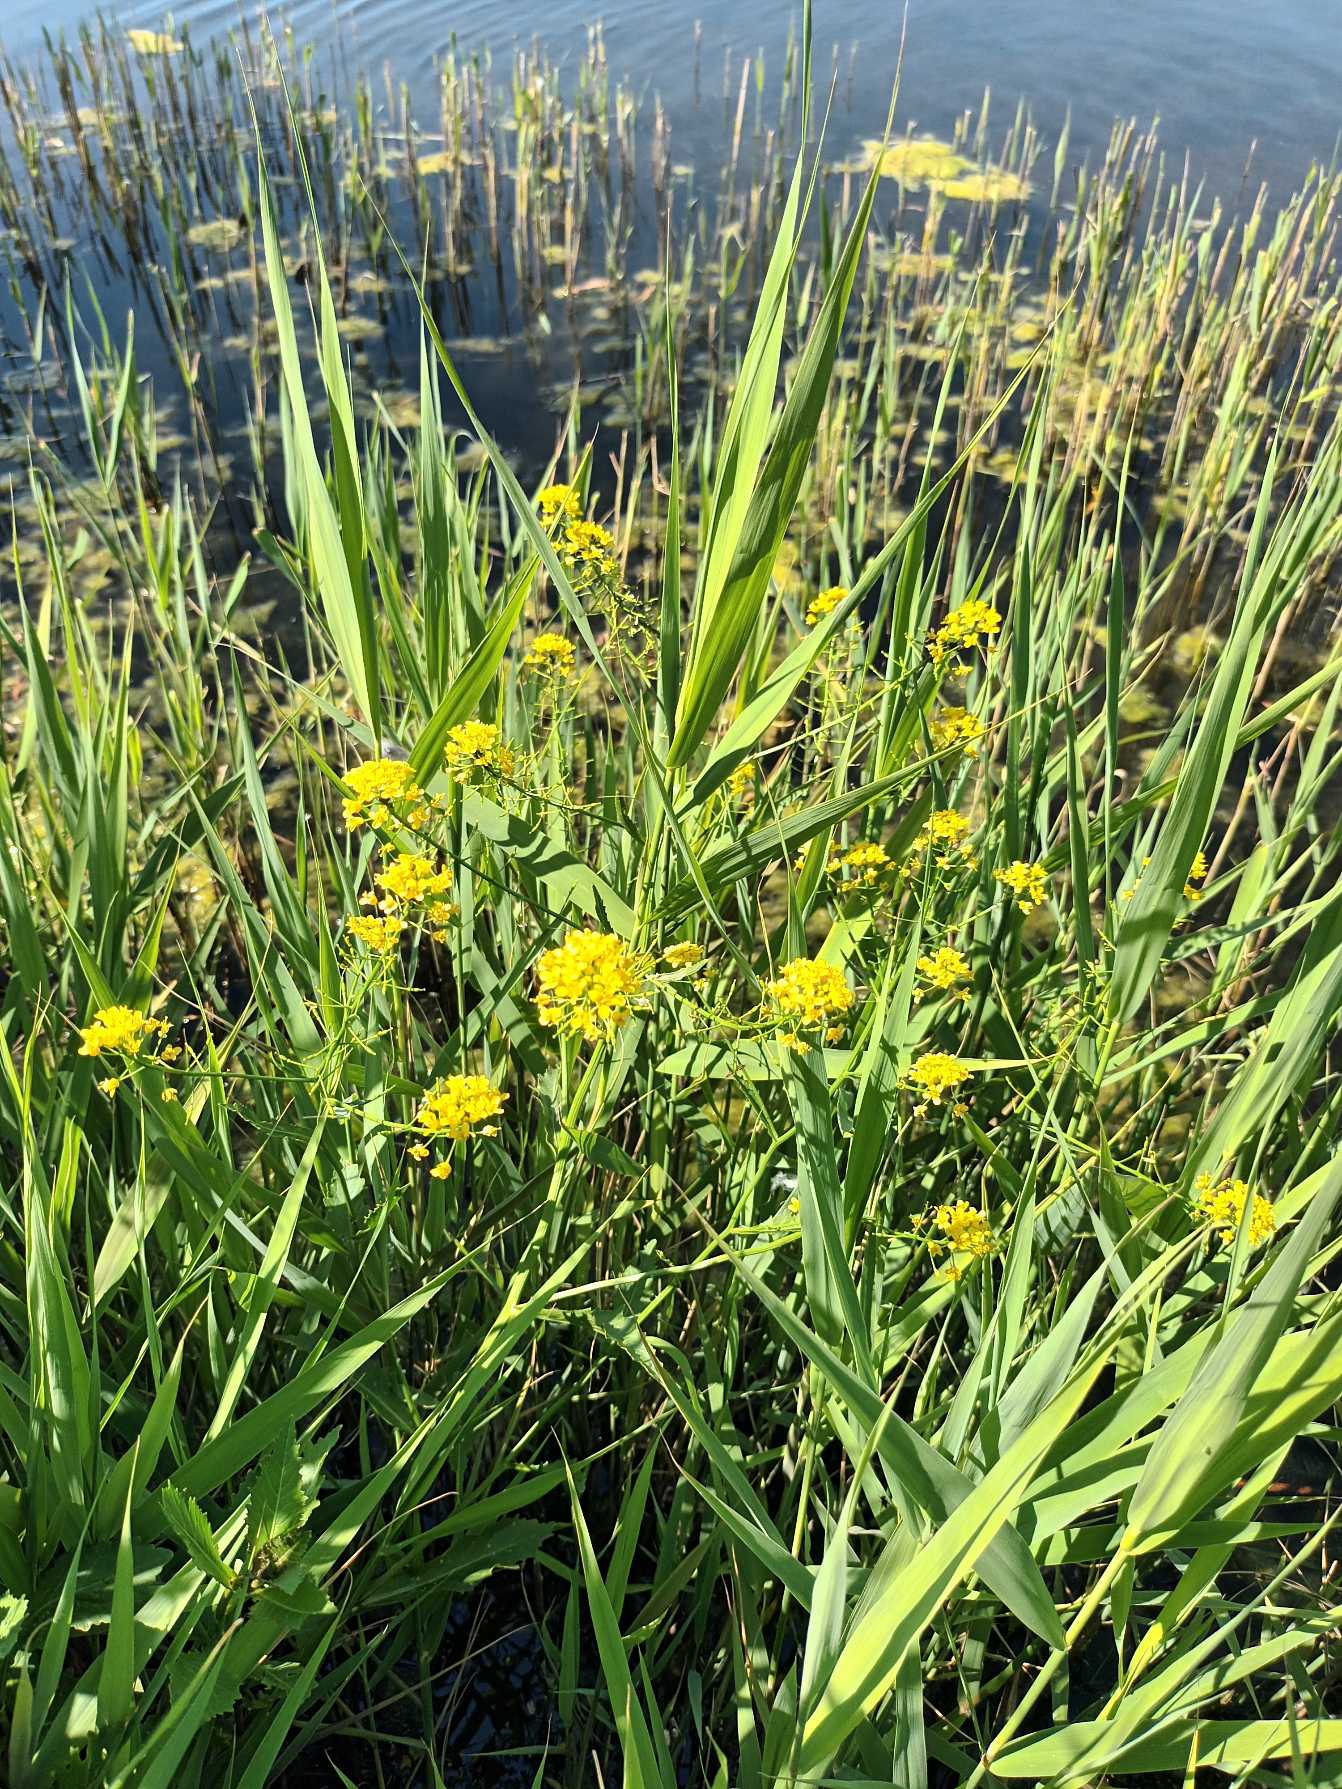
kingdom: Plantae
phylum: Tracheophyta
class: Magnoliopsida
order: Brassicales
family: Brassicaceae
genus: Rorippa
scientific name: Rorippa amphibia
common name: Vandpeberrod
